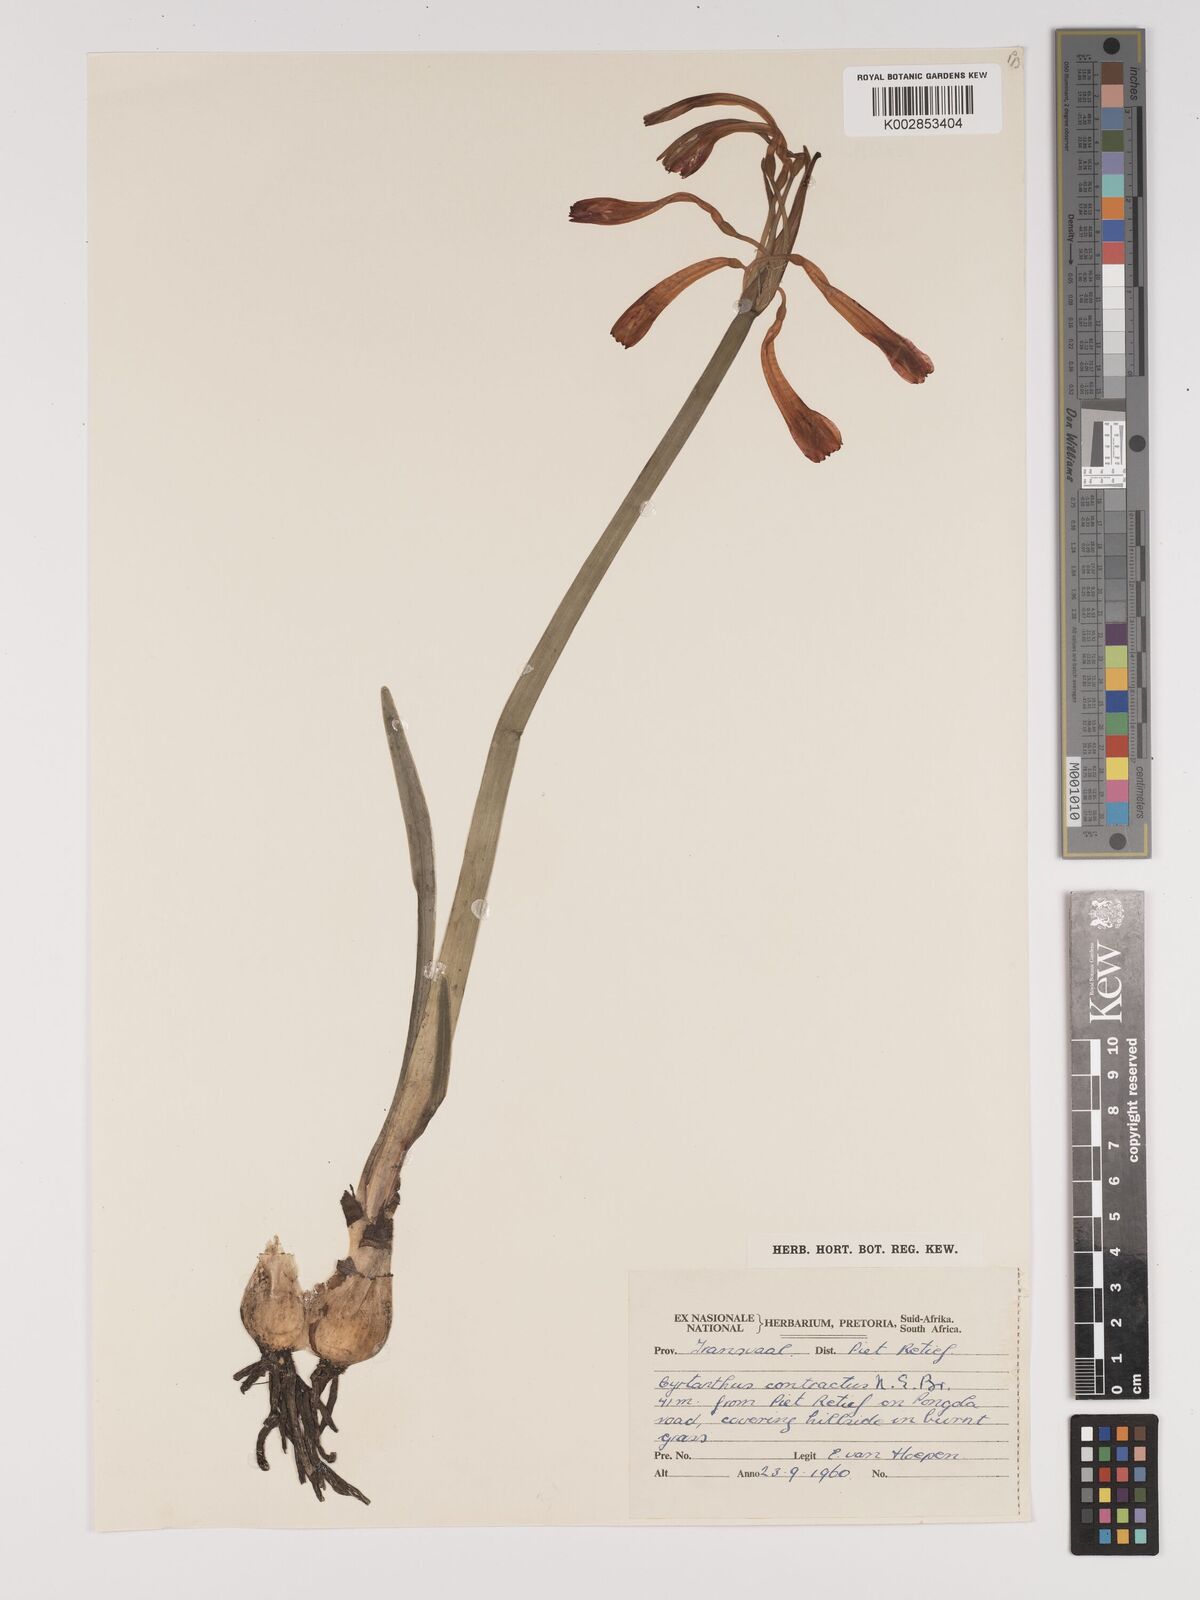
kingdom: Plantae
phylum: Tracheophyta
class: Liliopsida
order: Asparagales
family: Amaryllidaceae
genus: Cyrtanthus
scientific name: Cyrtanthus contractus
